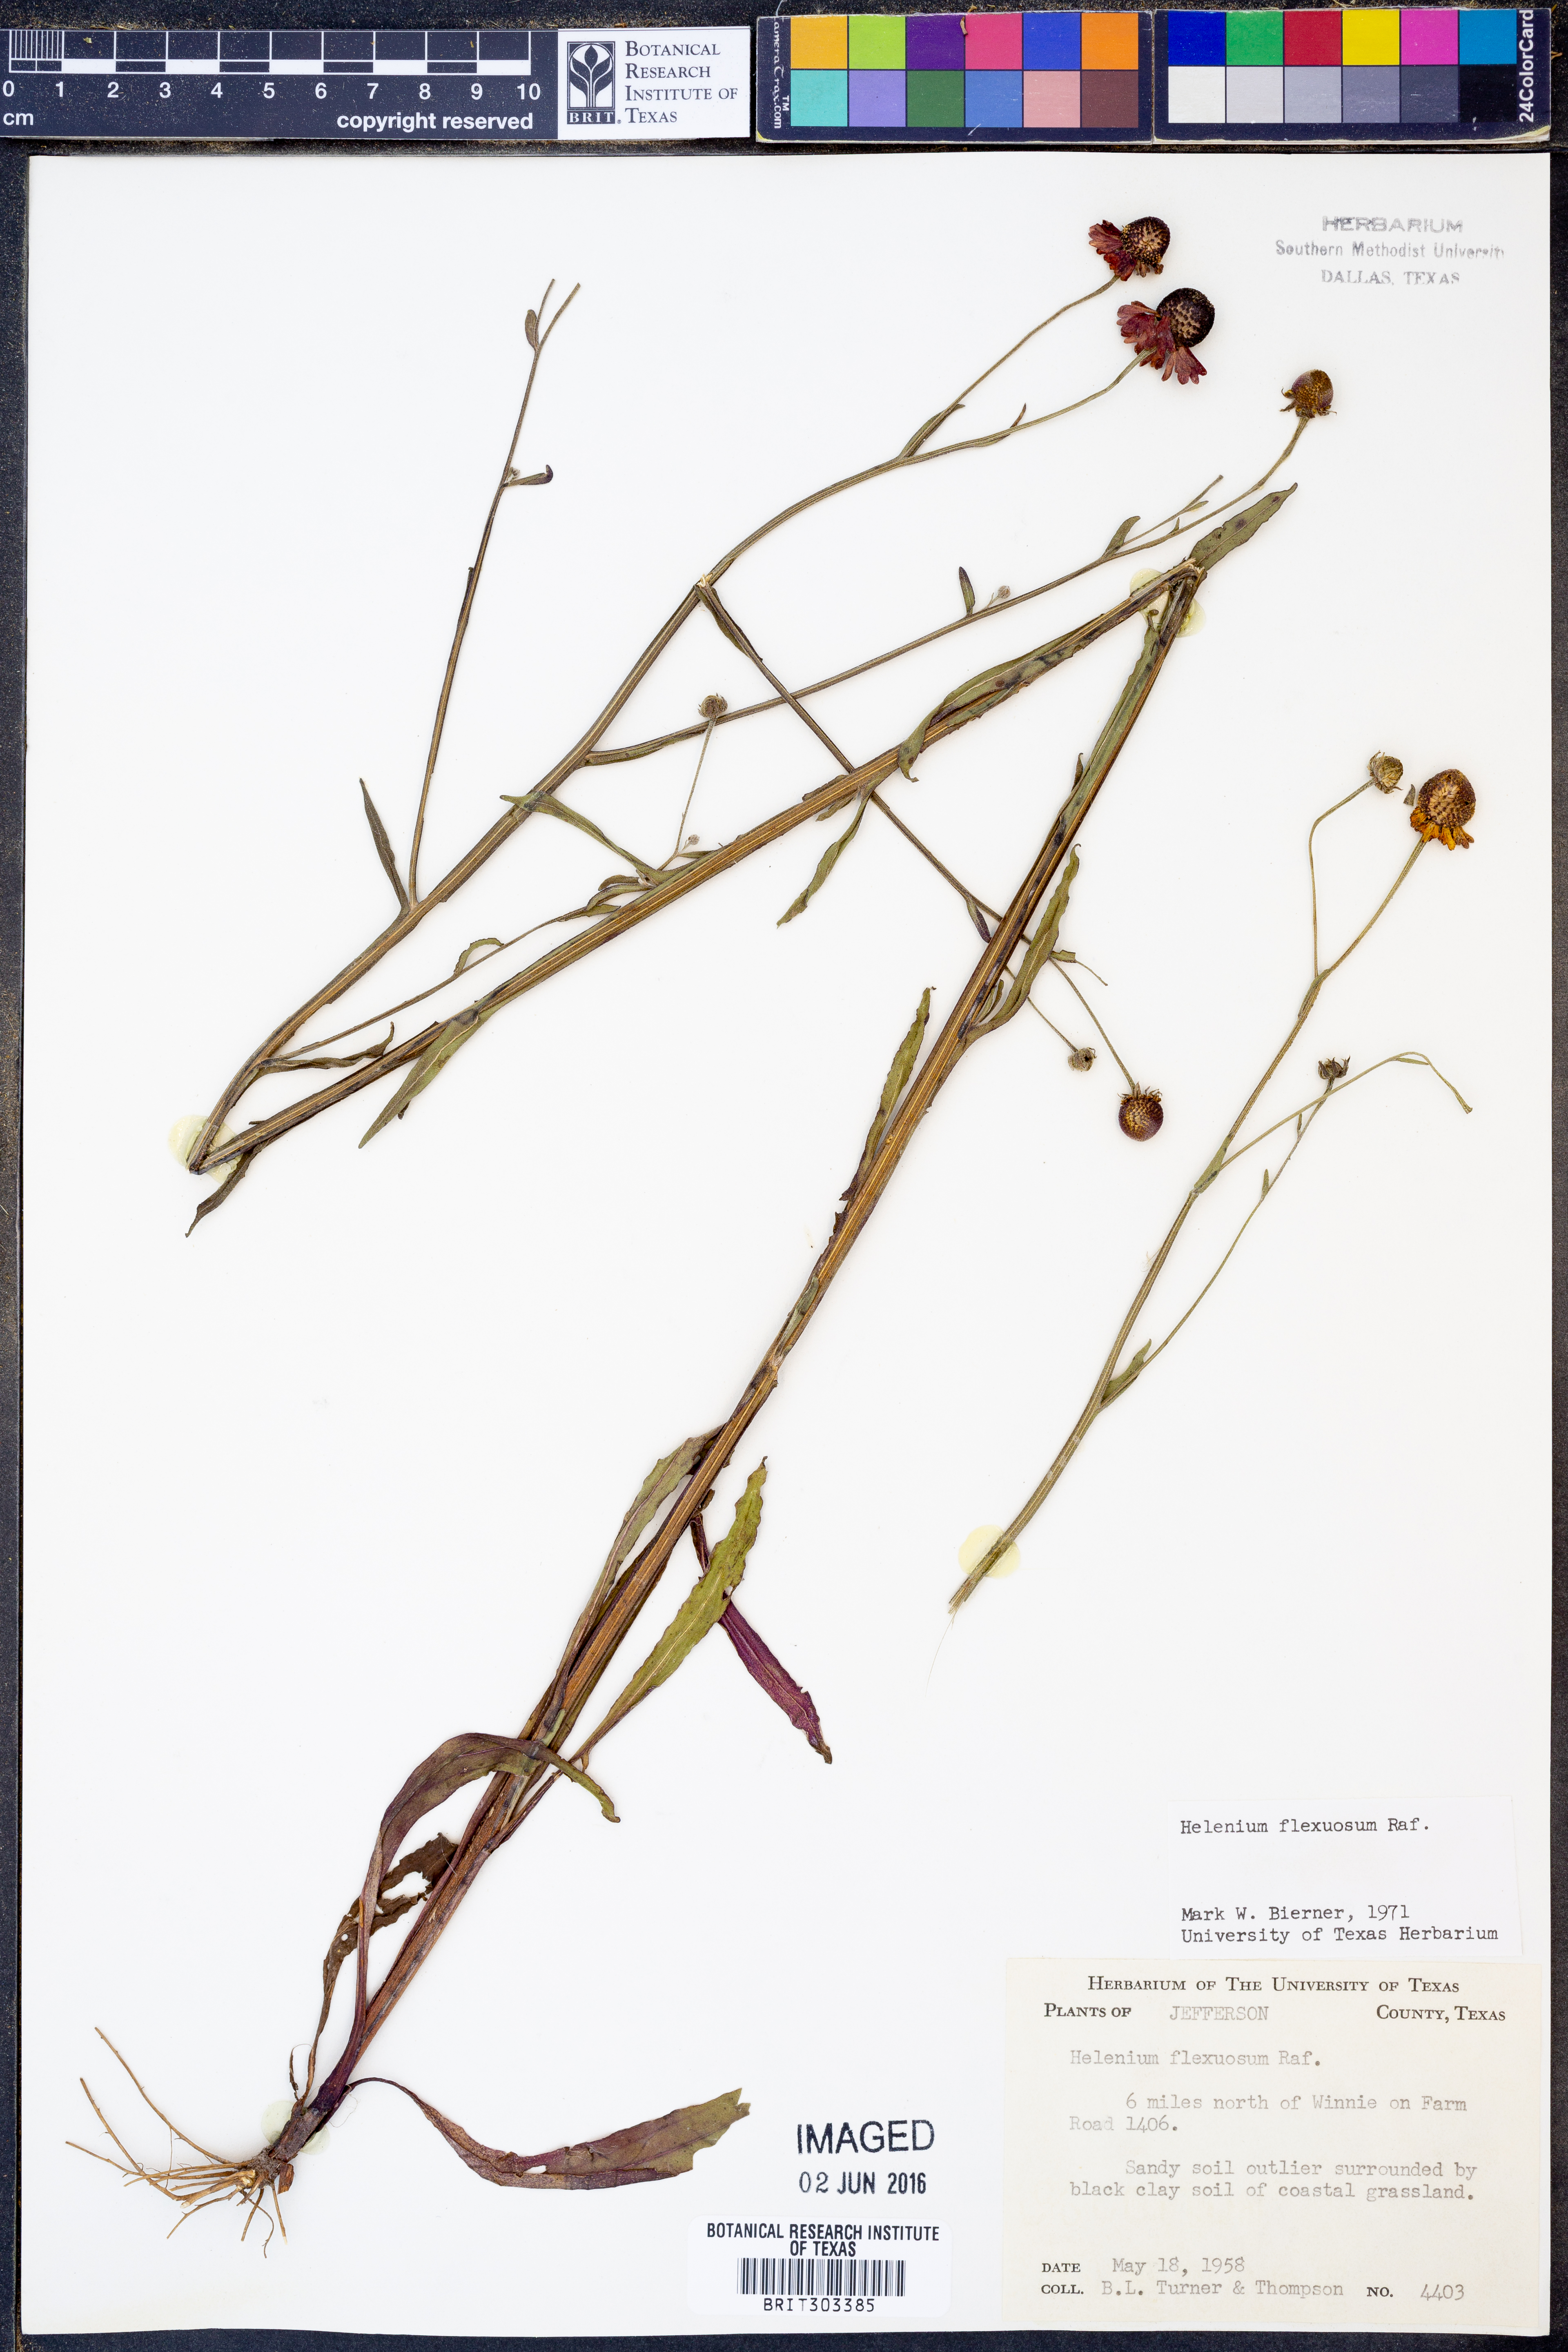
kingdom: Plantae
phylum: Tracheophyta
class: Magnoliopsida
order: Asterales
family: Asteraceae
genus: Helenium
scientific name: Helenium flexuosum
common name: Naked-flowered sneezeweed
